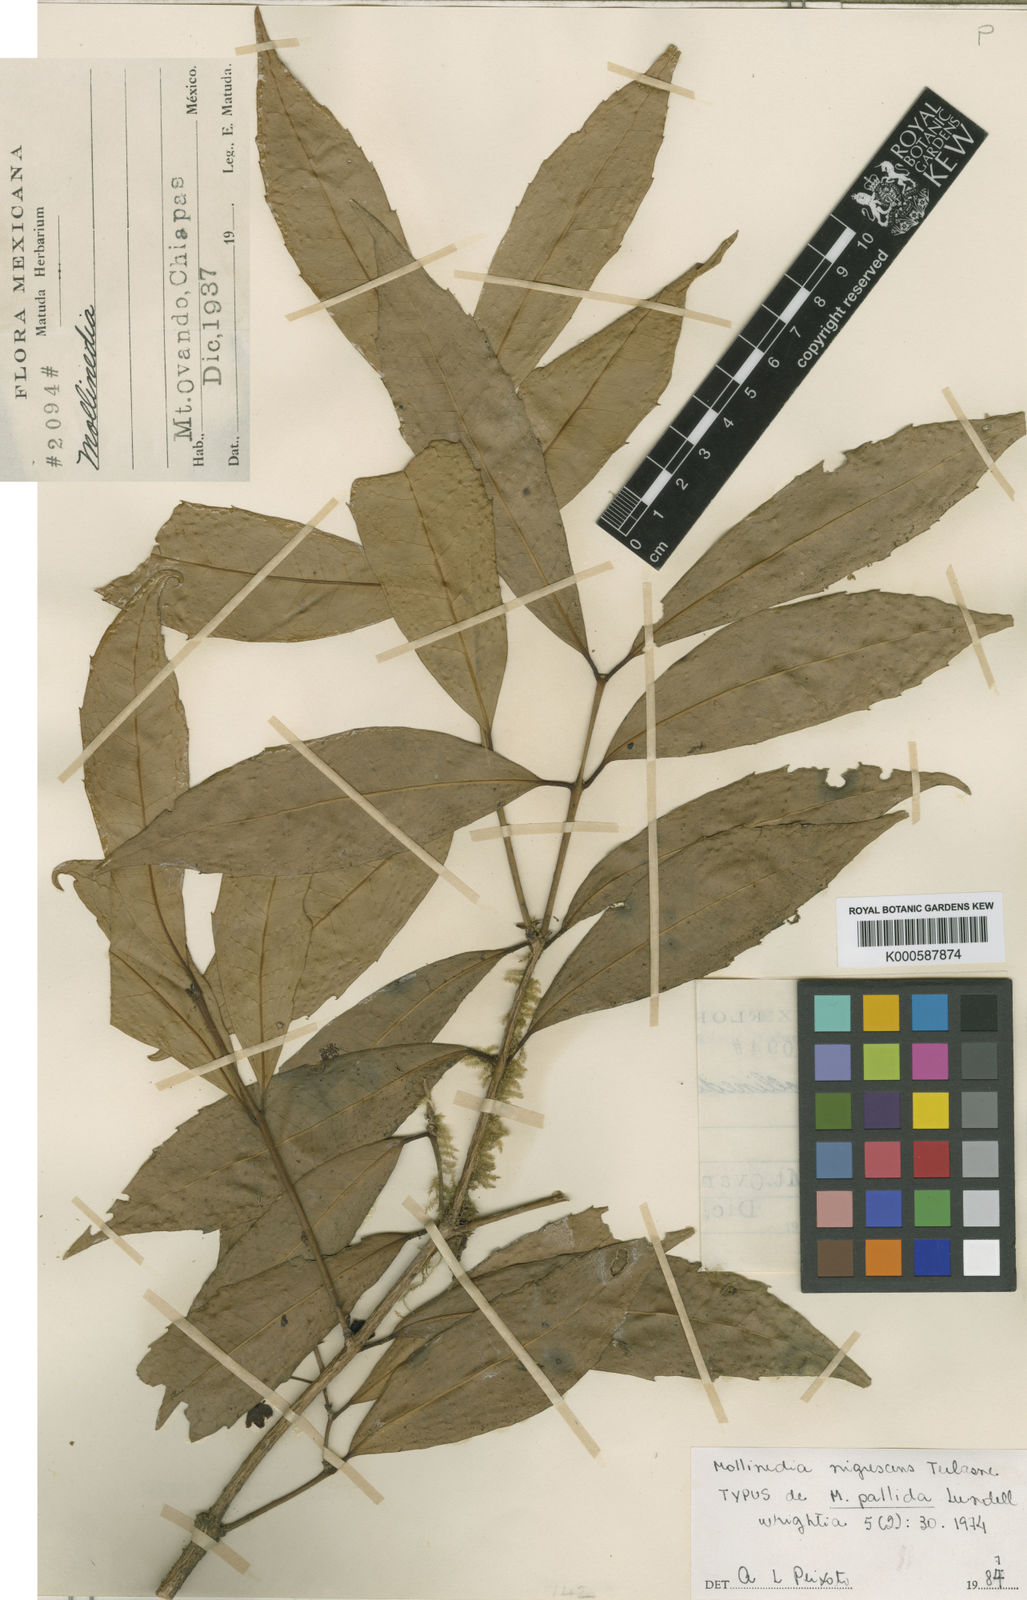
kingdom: Plantae
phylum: Tracheophyta
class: Magnoliopsida
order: Laurales
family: Monimiaceae
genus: Mollinedia
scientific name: Mollinedia pallida
